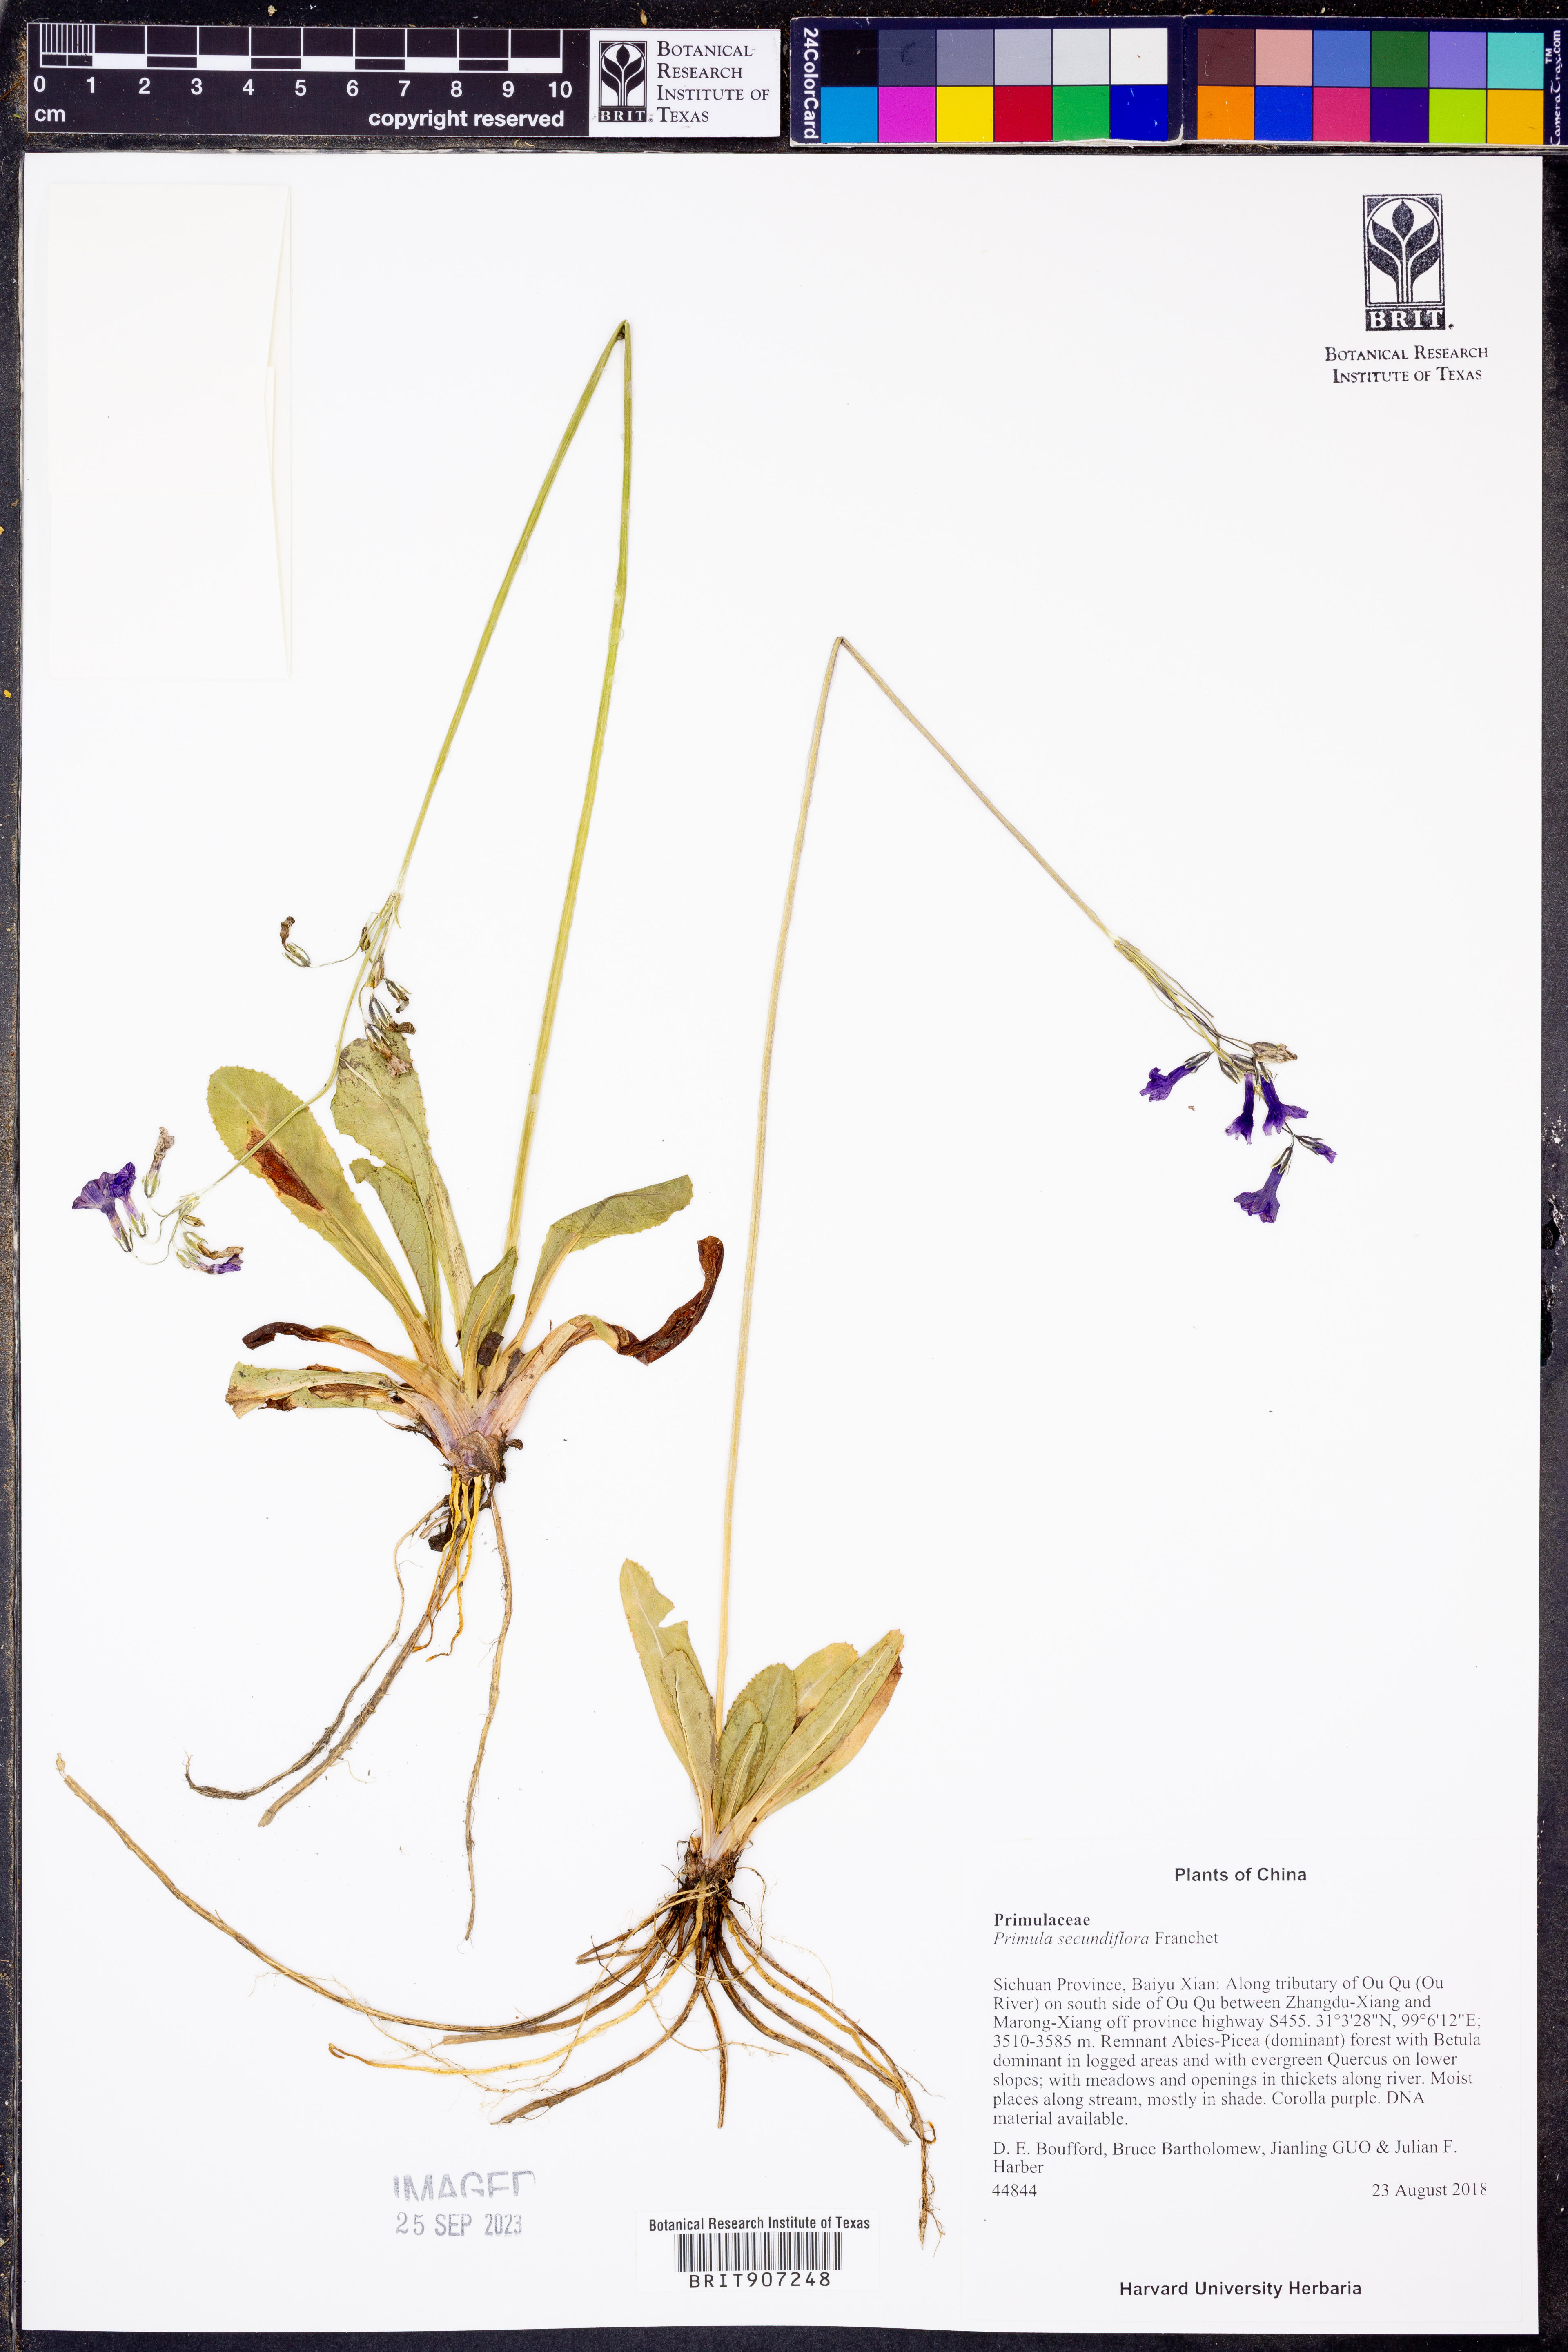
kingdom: Plantae
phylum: Tracheophyta
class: Magnoliopsida
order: Ericales
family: Primulaceae
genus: Primula
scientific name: Primula secundiflora
